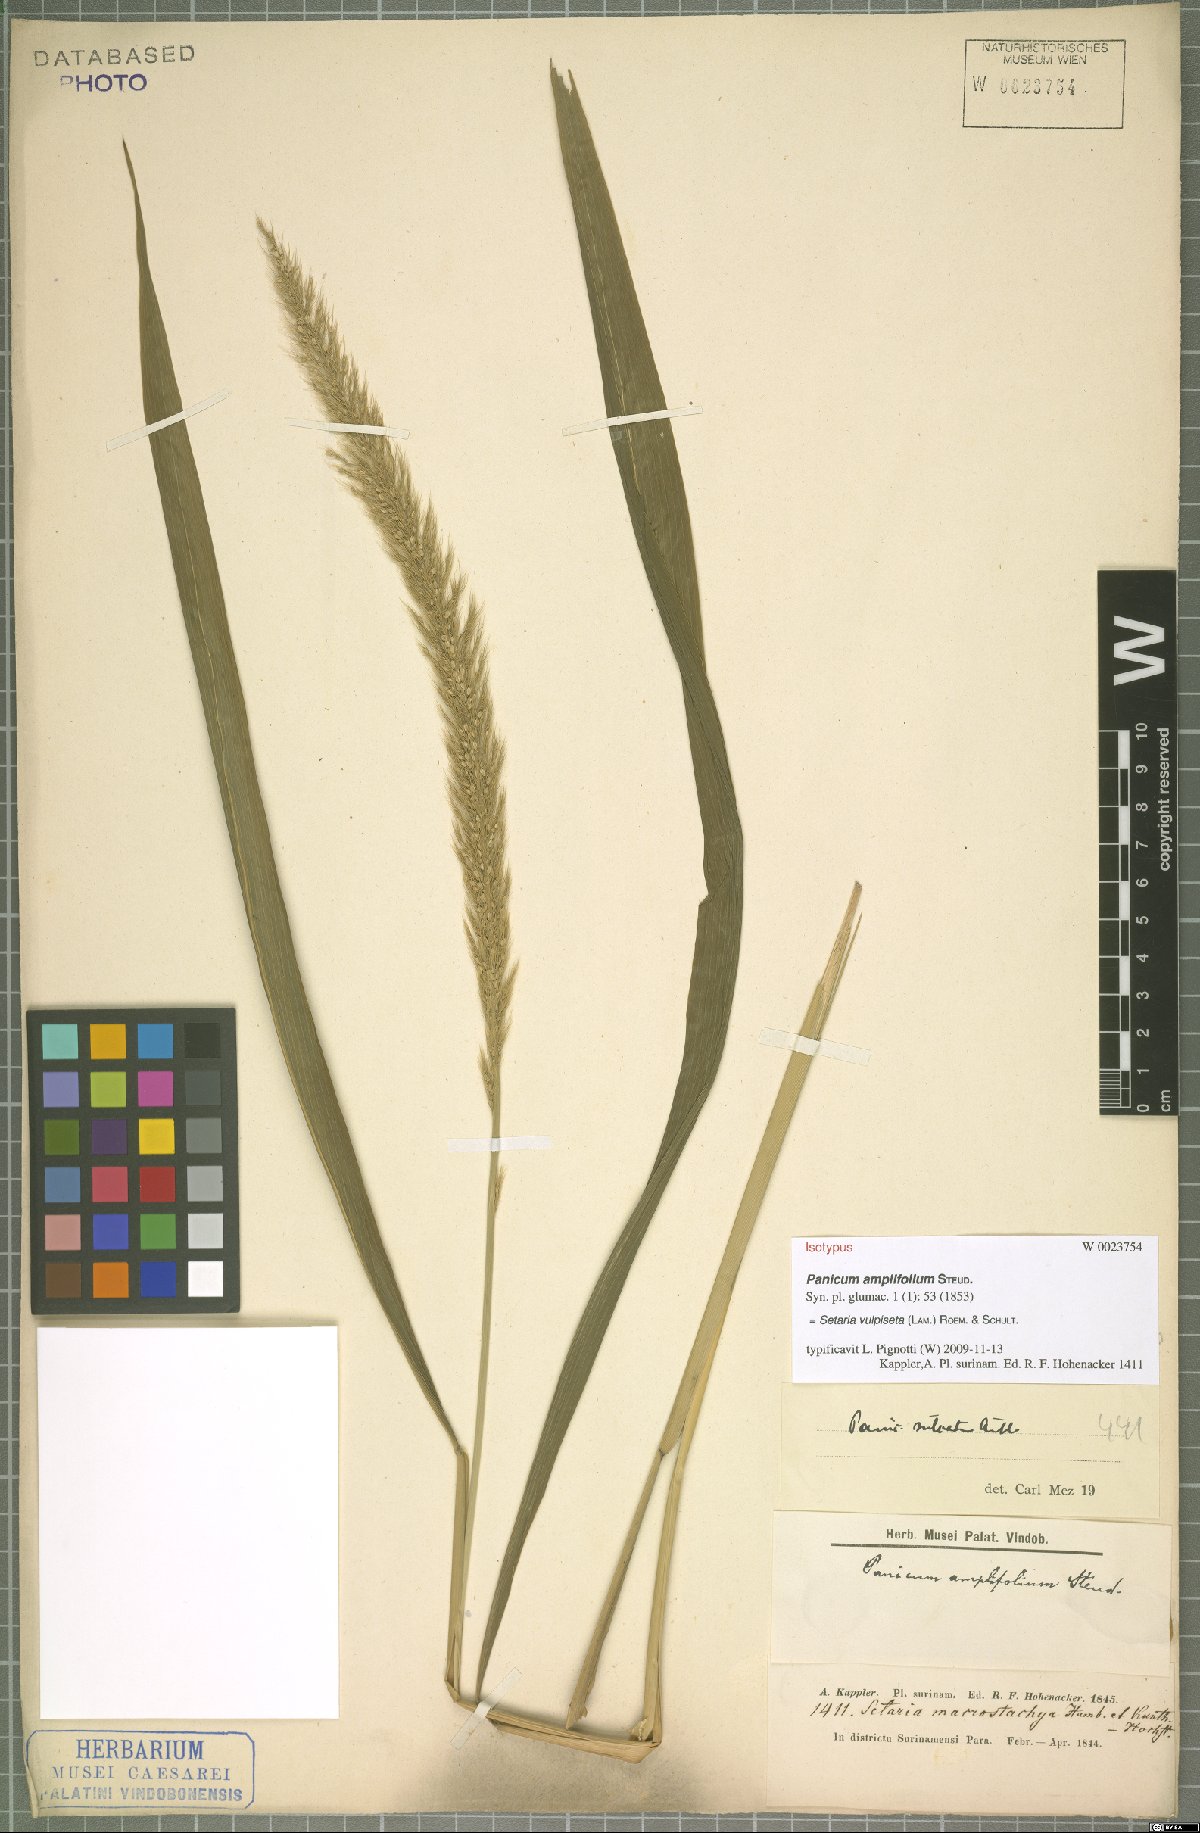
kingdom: Plantae
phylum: Tracheophyta
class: Liliopsida
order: Poales
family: Poaceae
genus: Setaria
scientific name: Setaria vulpiseta
